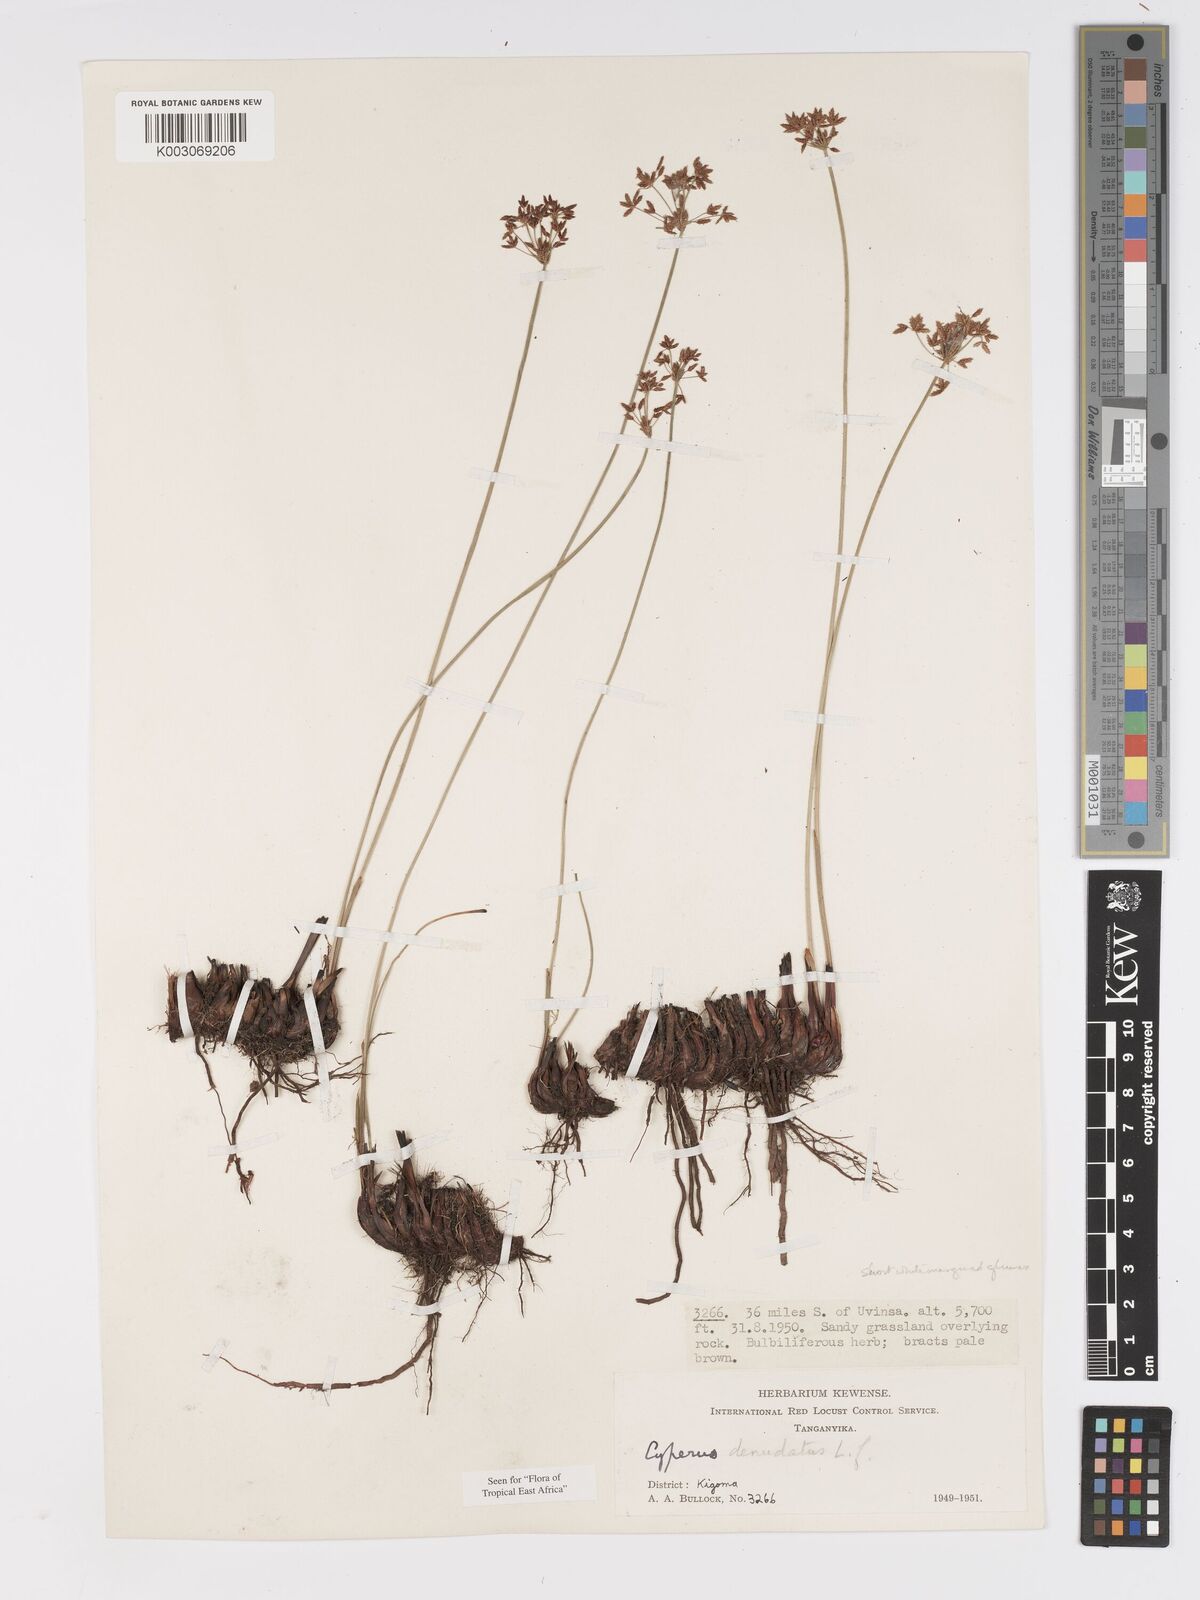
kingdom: Plantae
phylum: Tracheophyta
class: Liliopsida
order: Poales
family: Cyperaceae
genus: Cyperus
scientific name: Cyperus denudatus
